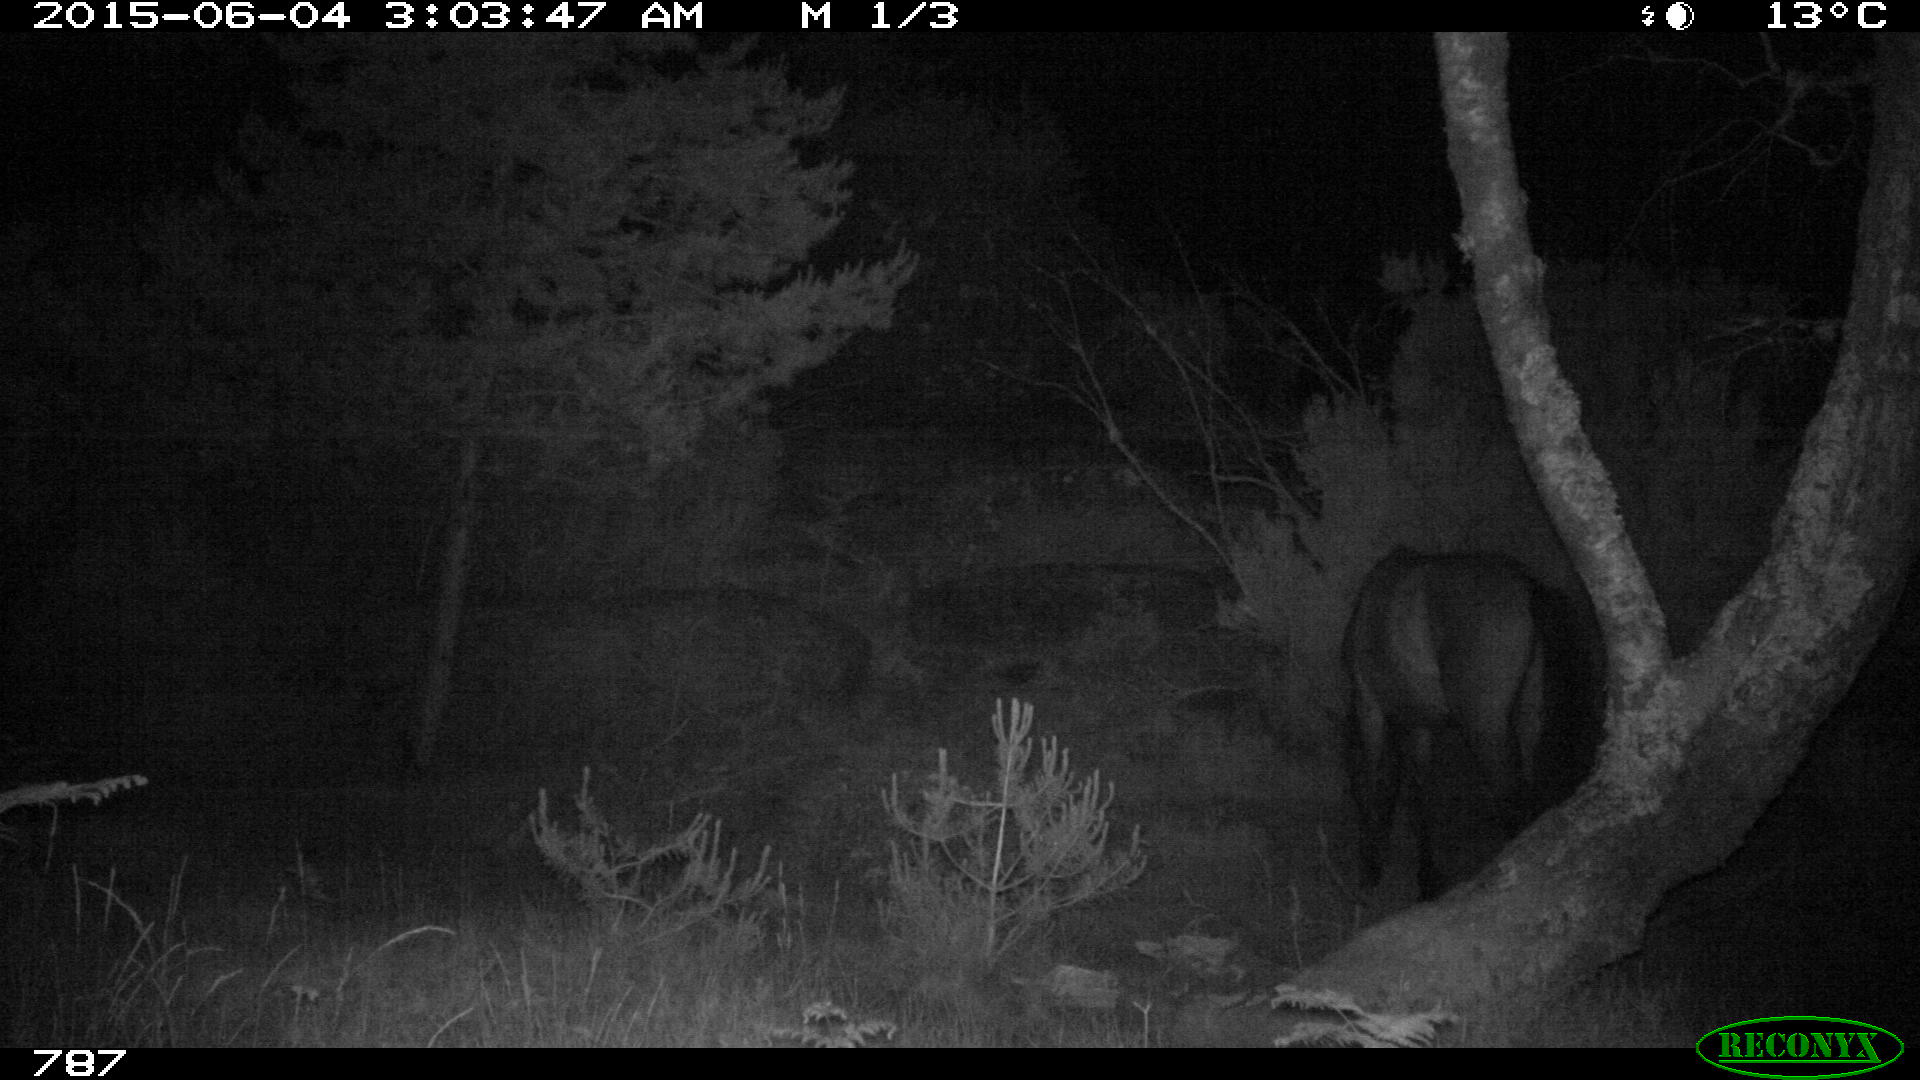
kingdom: Animalia
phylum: Chordata
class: Mammalia
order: Perissodactyla
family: Equidae
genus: Equus
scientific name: Equus caballus
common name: Horse
